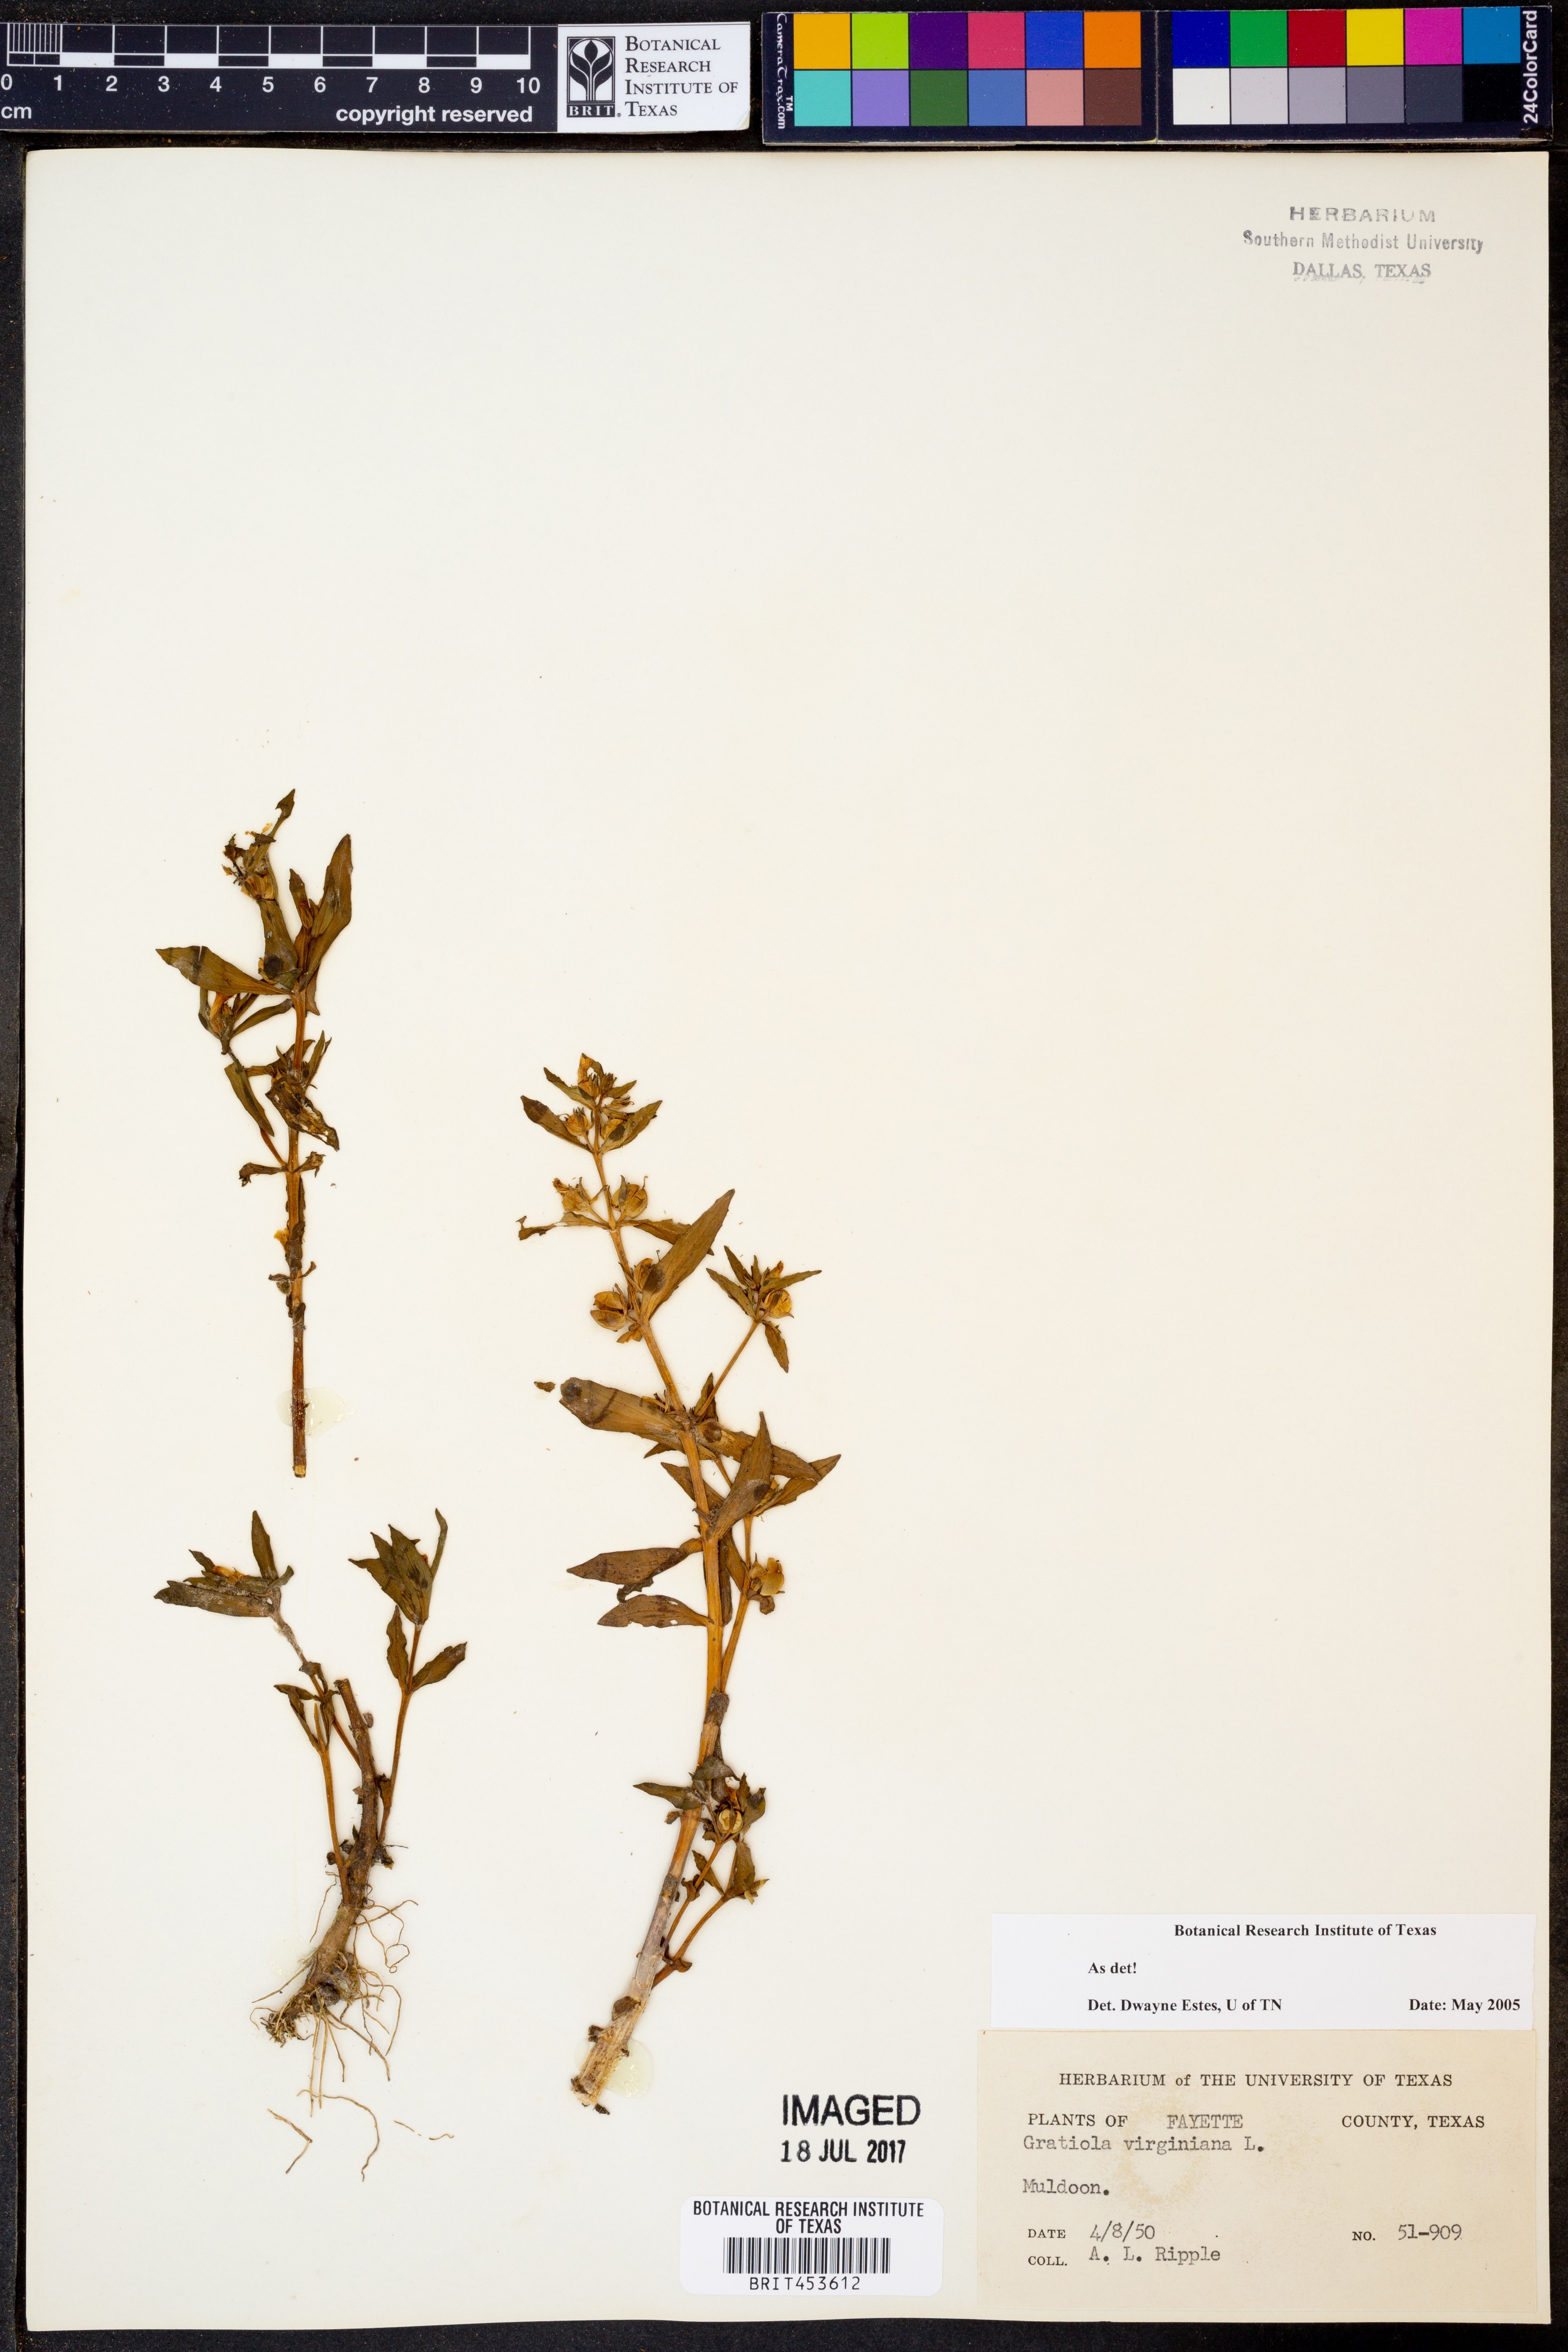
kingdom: Plantae
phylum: Tracheophyta
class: Magnoliopsida
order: Lamiales
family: Plantaginaceae
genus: Gratiola
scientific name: Gratiola virginiana
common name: Roundfruit hedgehyssop
